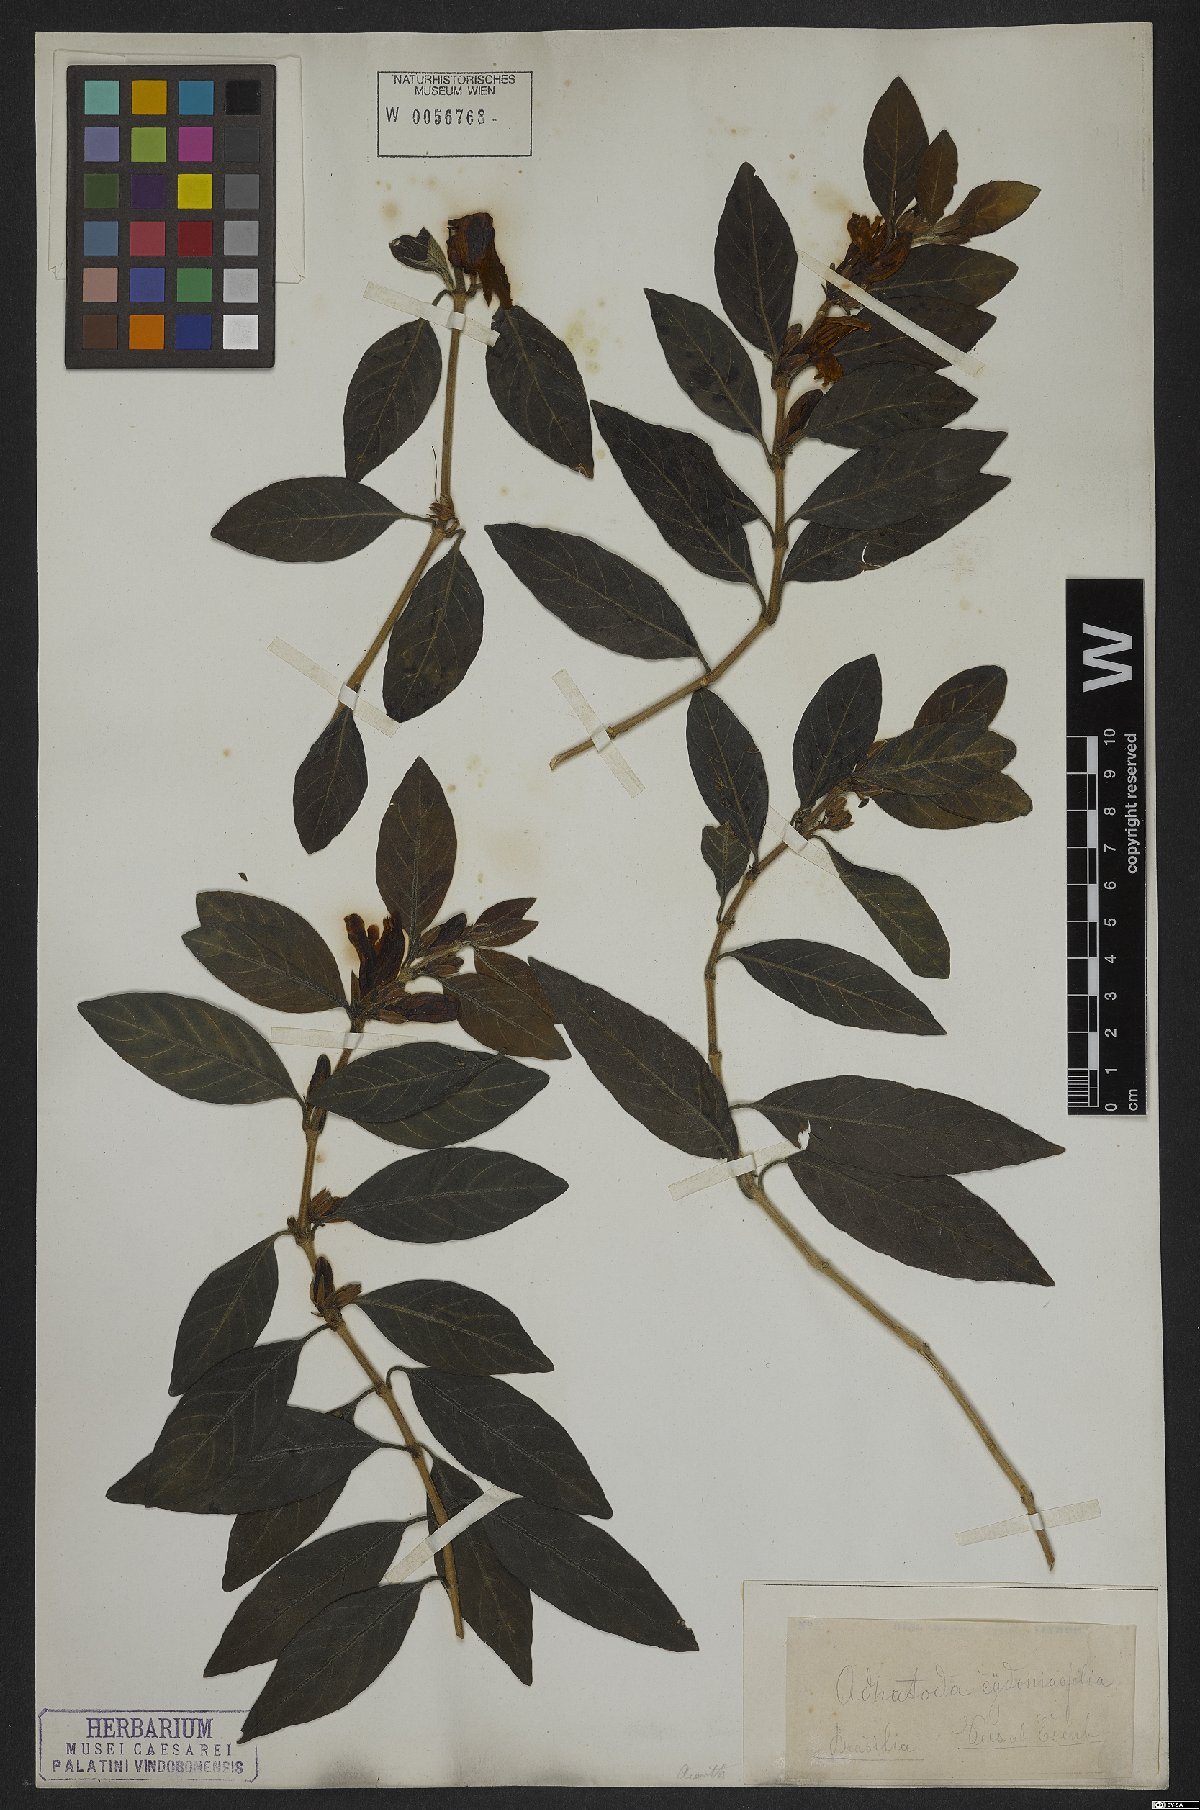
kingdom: Plantae
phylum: Tracheophyta
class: Magnoliopsida
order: Lamiales
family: Acanthaceae
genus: Justicia
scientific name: Justicia cydoniifolia
